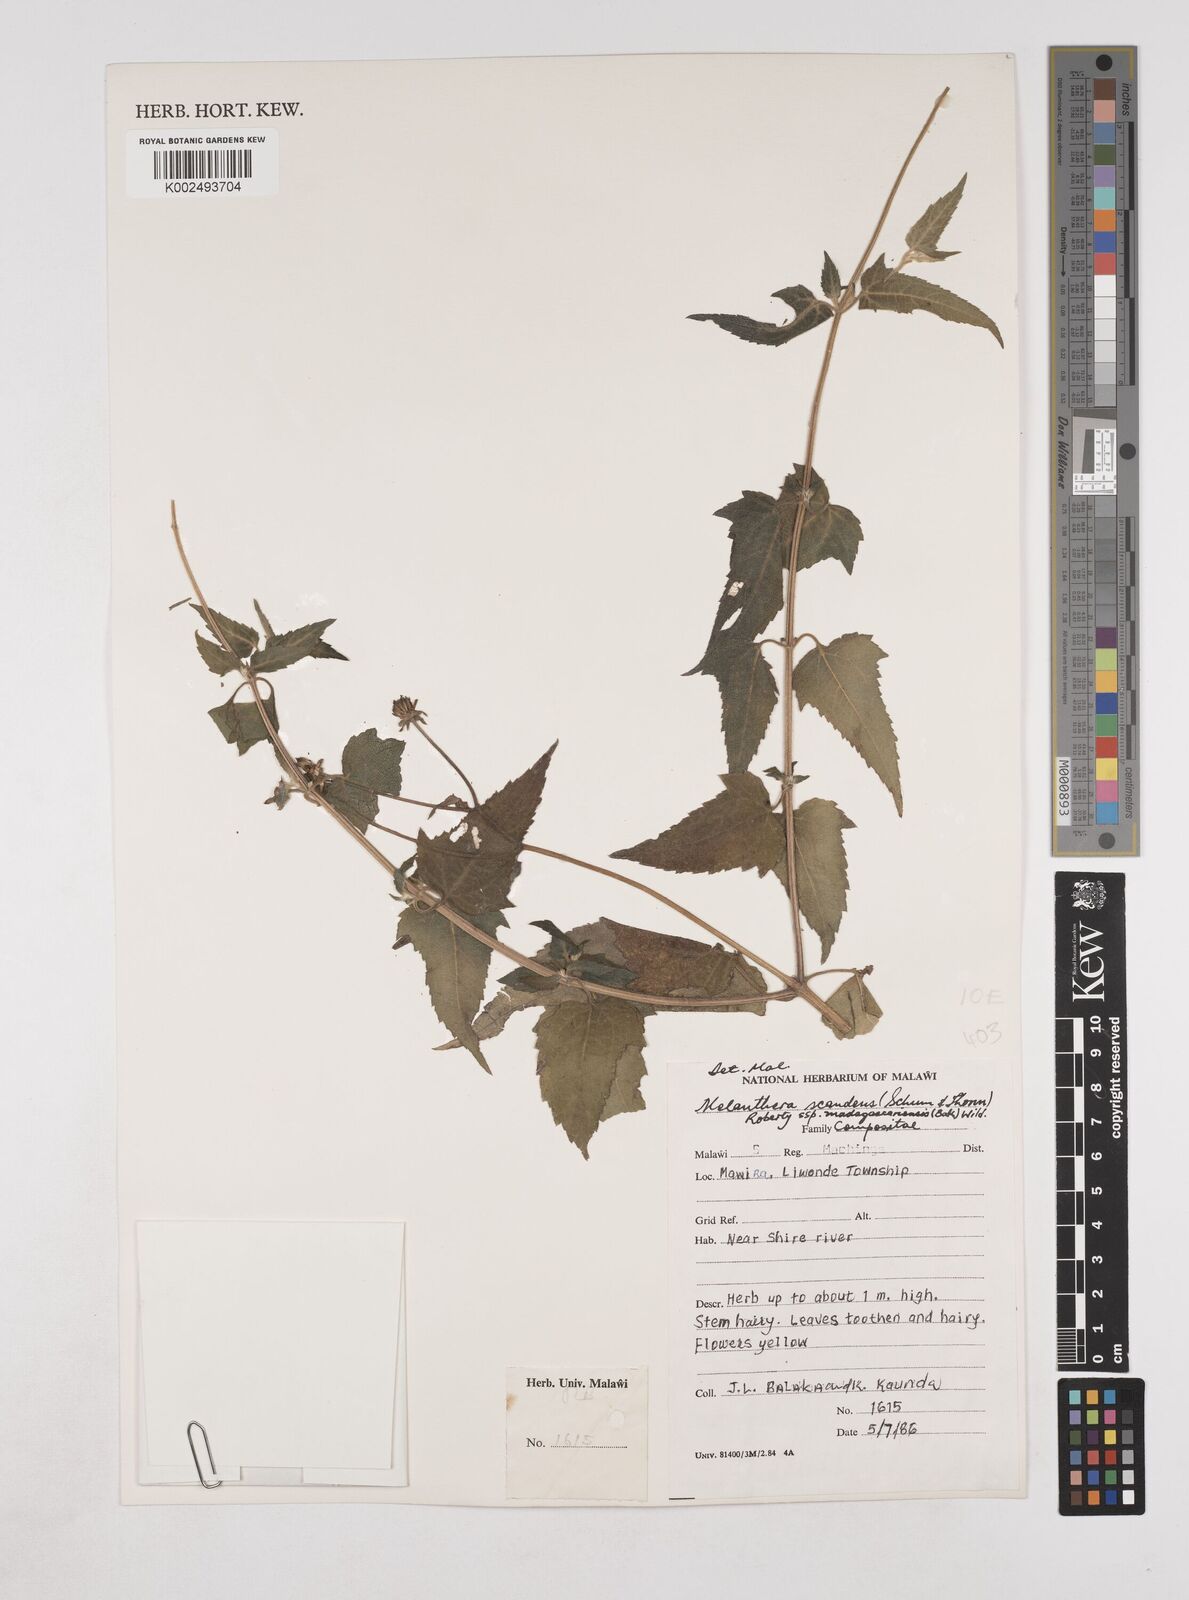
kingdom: Plantae
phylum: Tracheophyta
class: Magnoliopsida
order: Asterales
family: Asteraceae
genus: Lipotriche
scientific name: Lipotriche scandens
